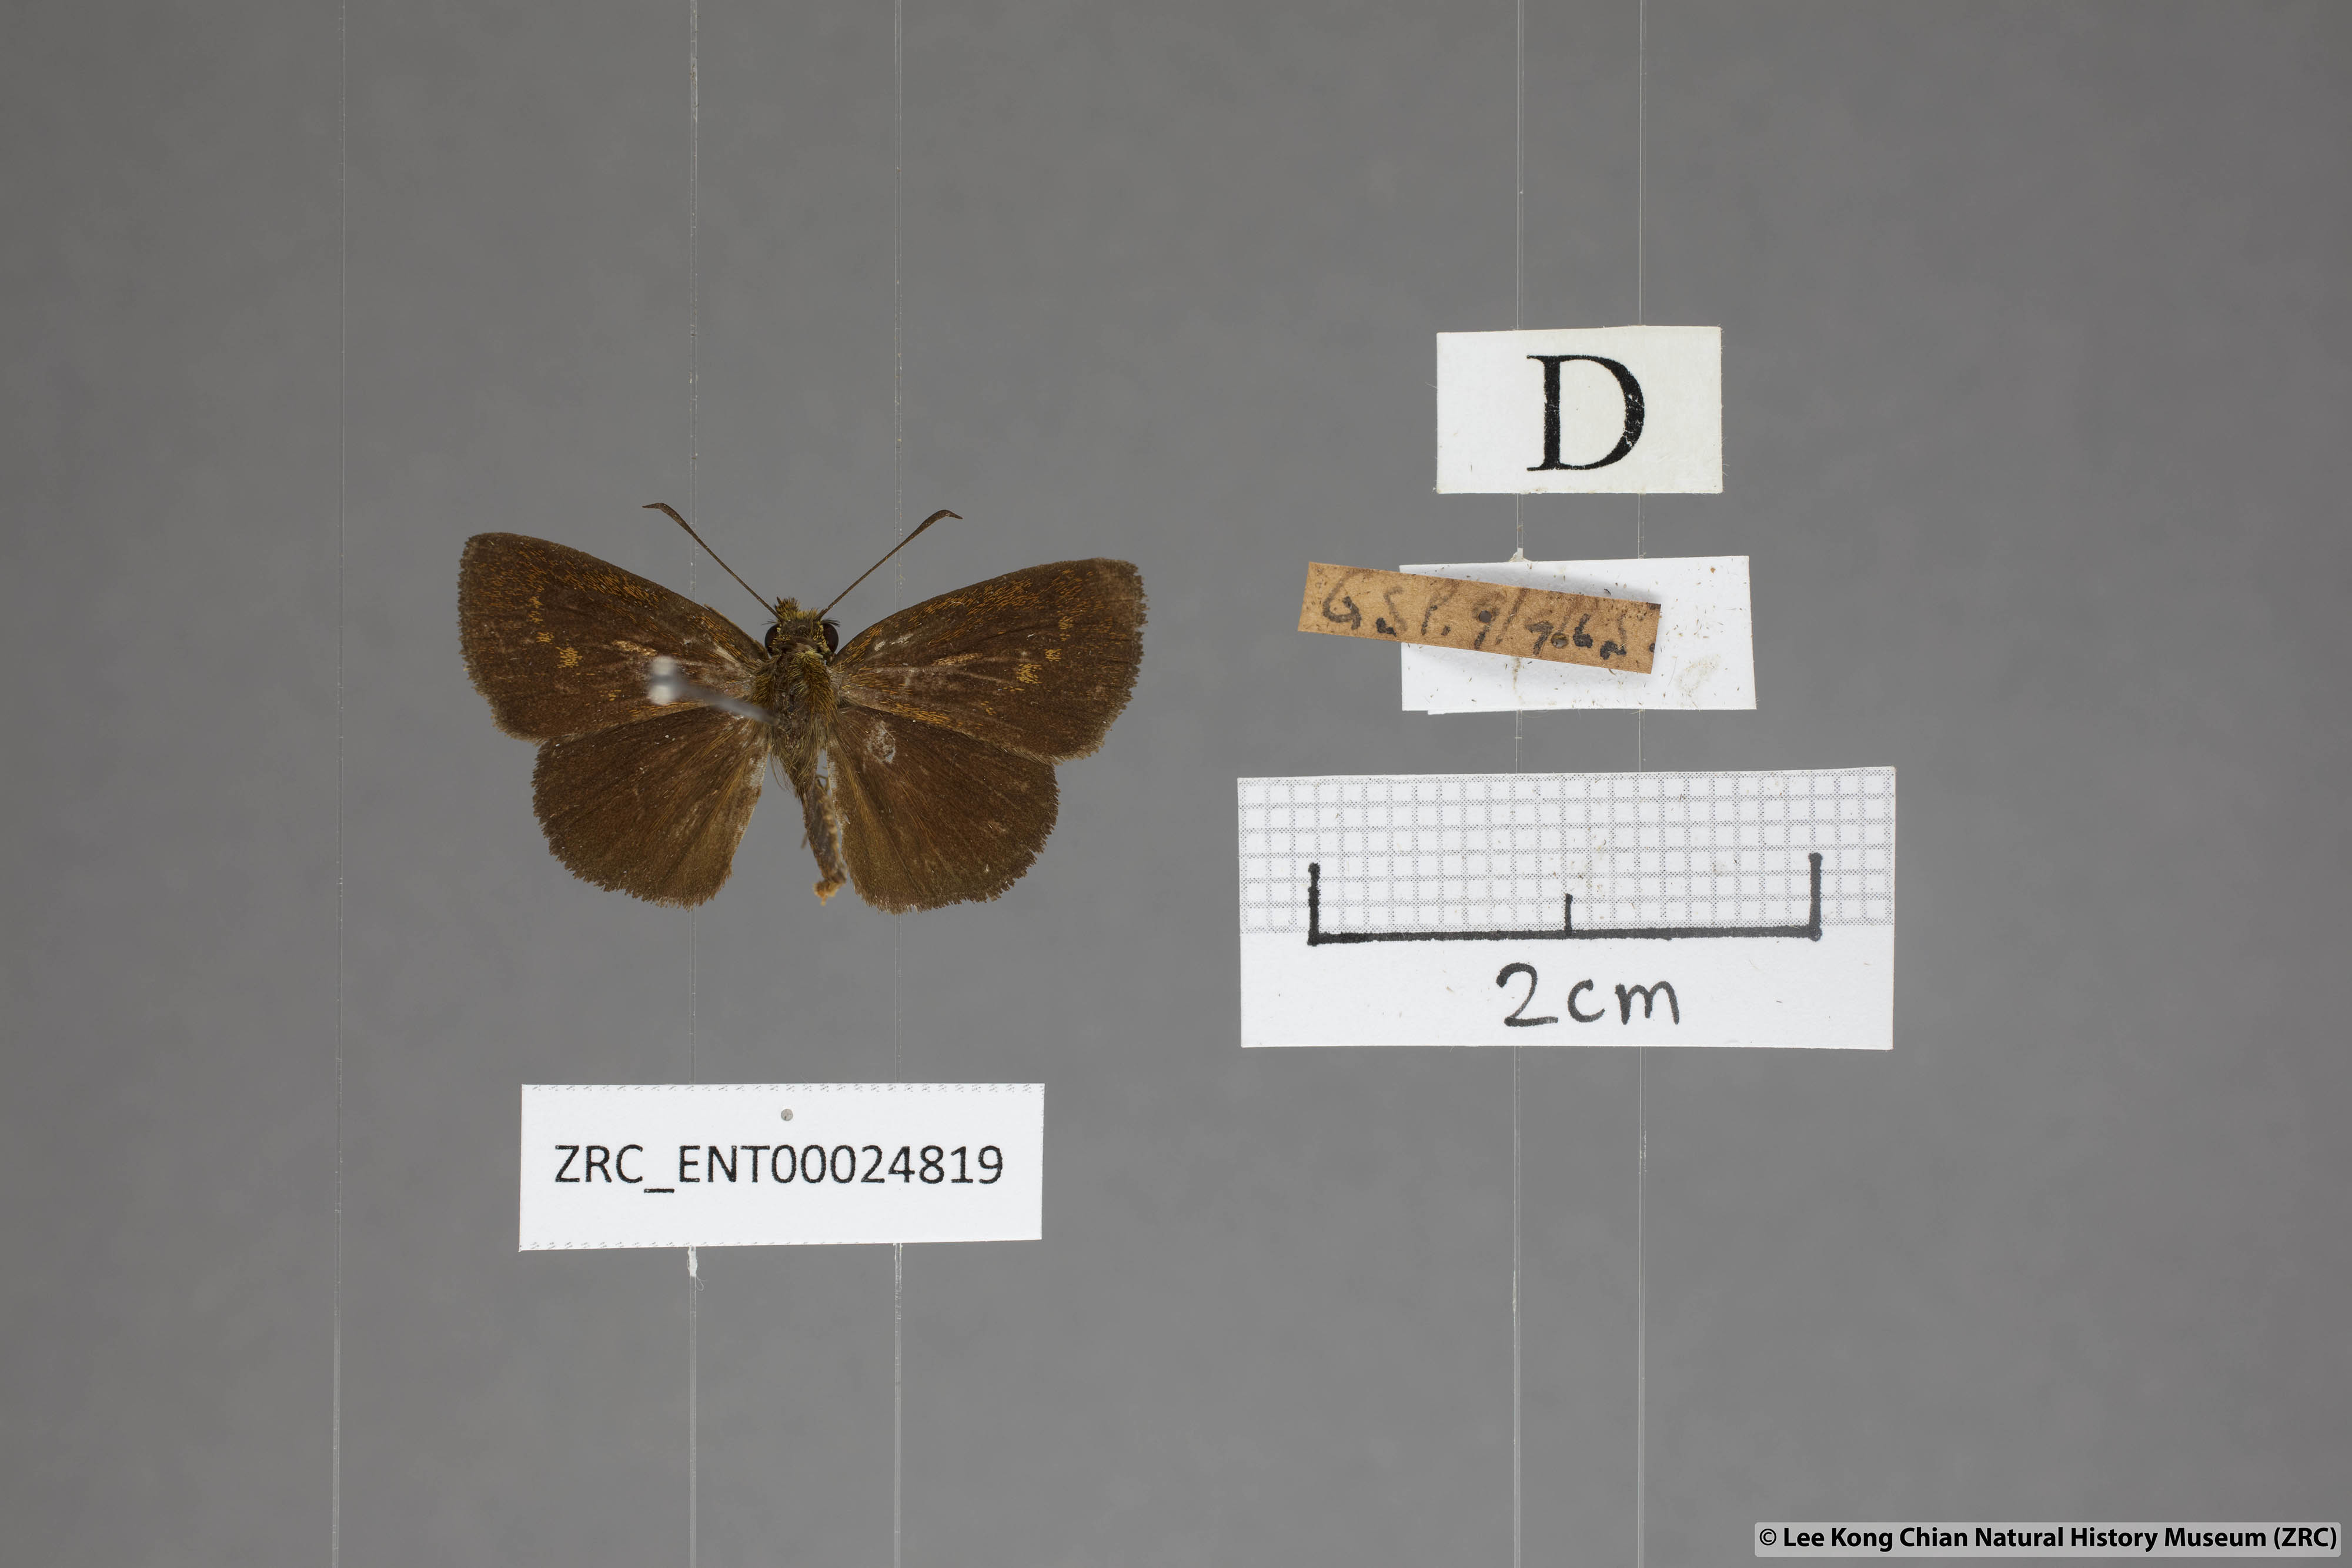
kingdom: Animalia
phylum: Arthropoda
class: Insecta
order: Lepidoptera
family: Hesperiidae
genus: Iambrix
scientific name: Iambrix salsala
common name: Chestnut bob
